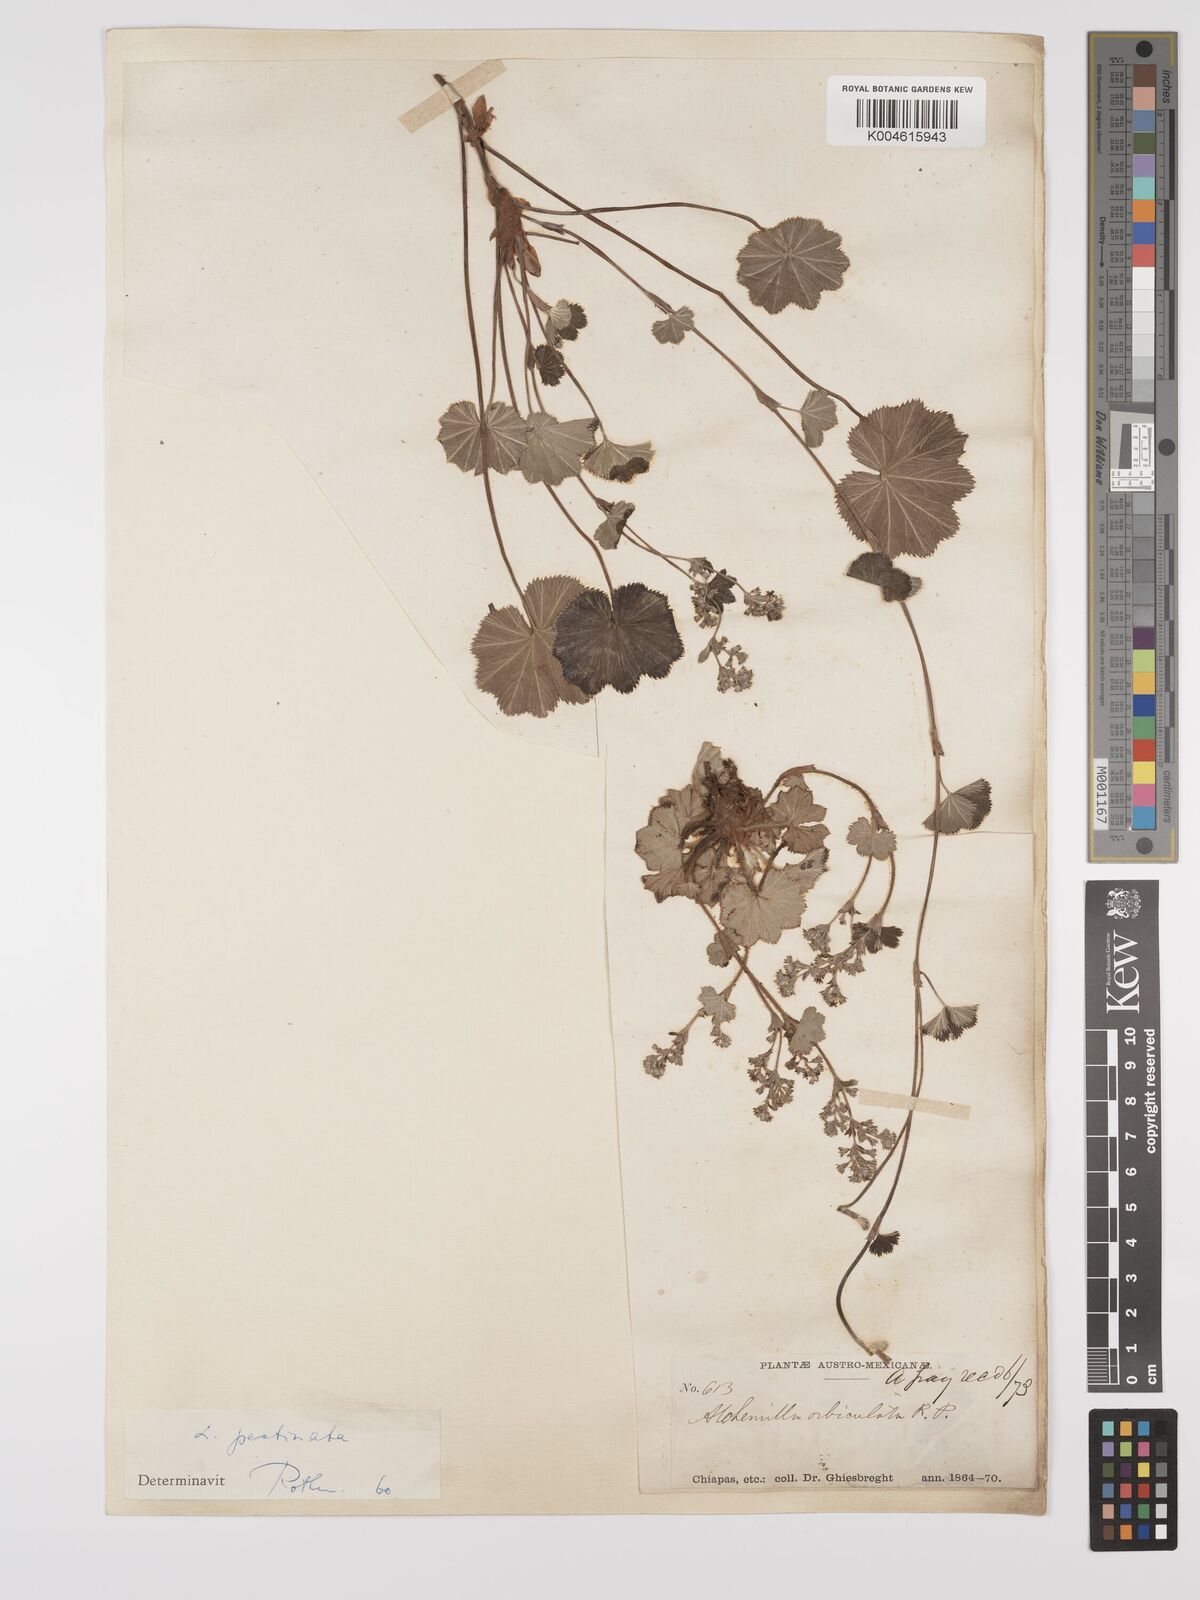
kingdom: Plantae
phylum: Tracheophyta
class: Magnoliopsida
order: Rosales
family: Rosaceae
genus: Lachemilla
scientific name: Lachemilla pectinata
